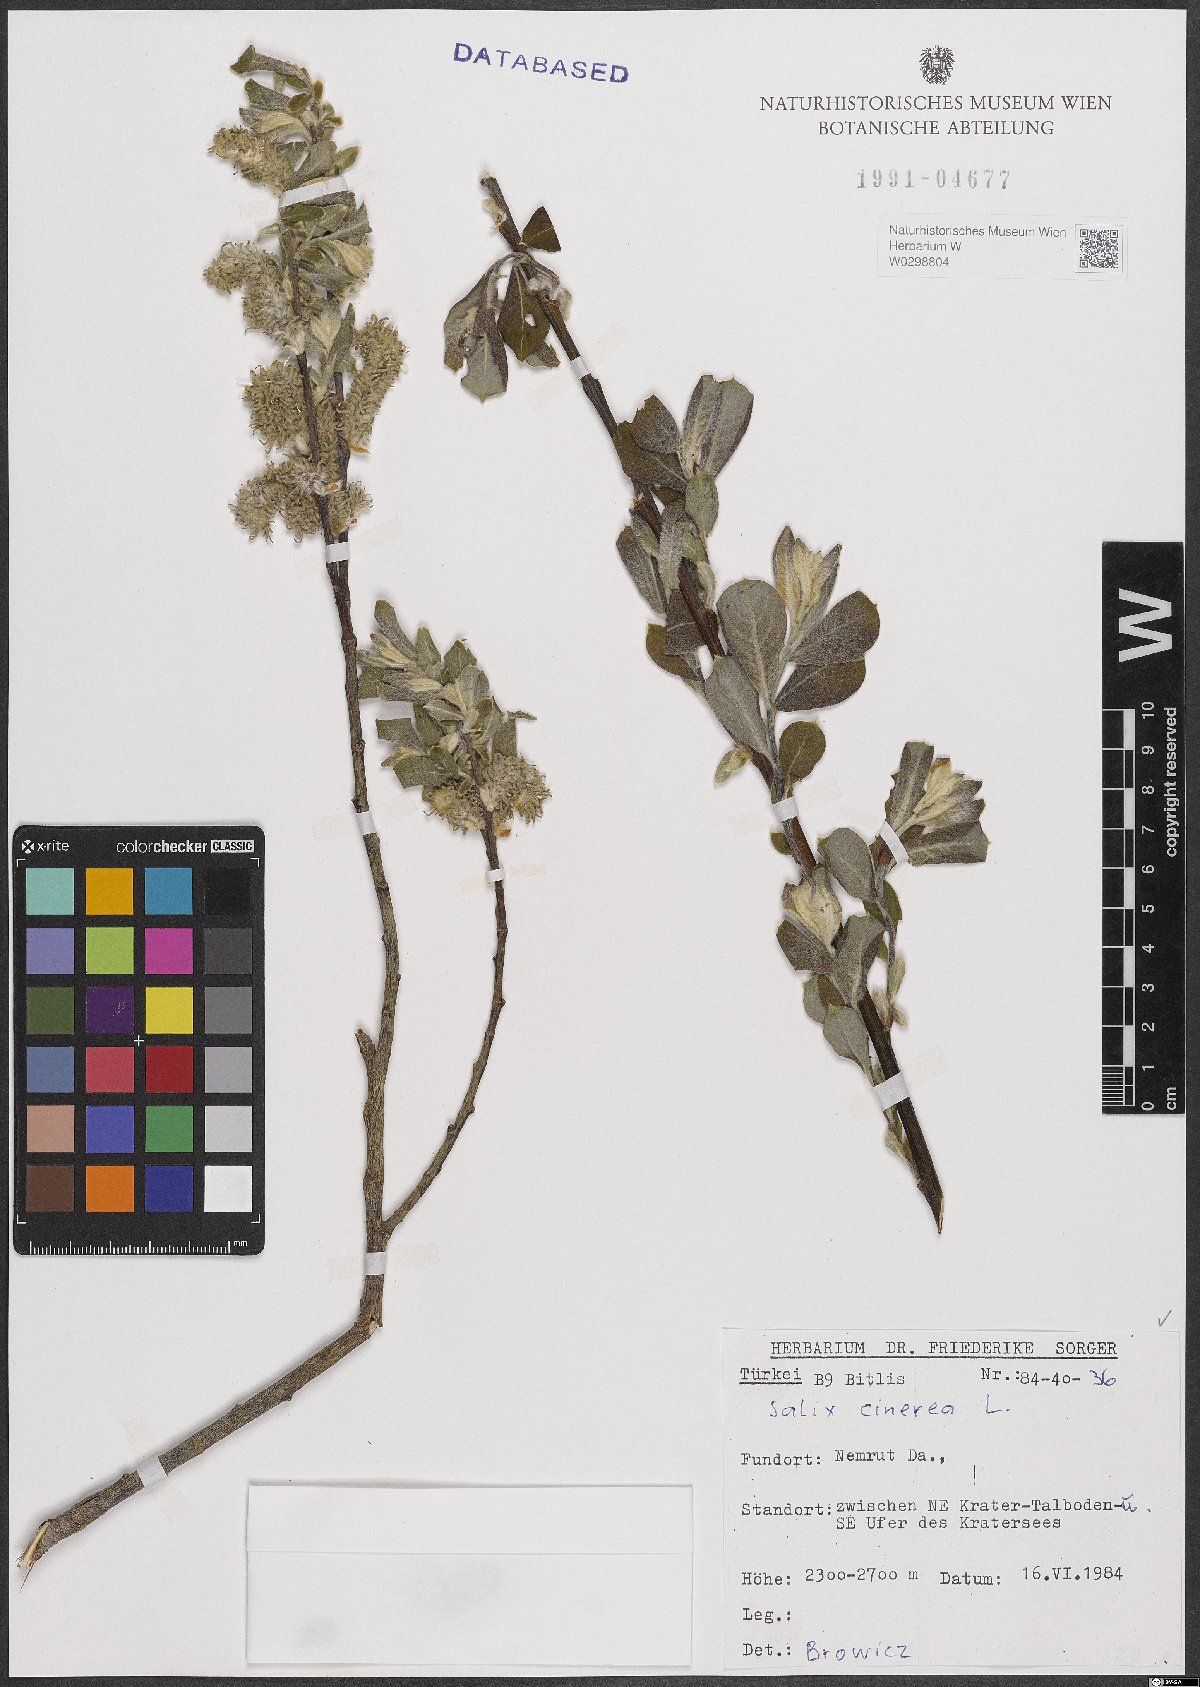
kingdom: Plantae
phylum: Tracheophyta
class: Magnoliopsida
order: Malpighiales
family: Salicaceae
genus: Salix
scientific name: Salix cinerea
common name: Common sallow
